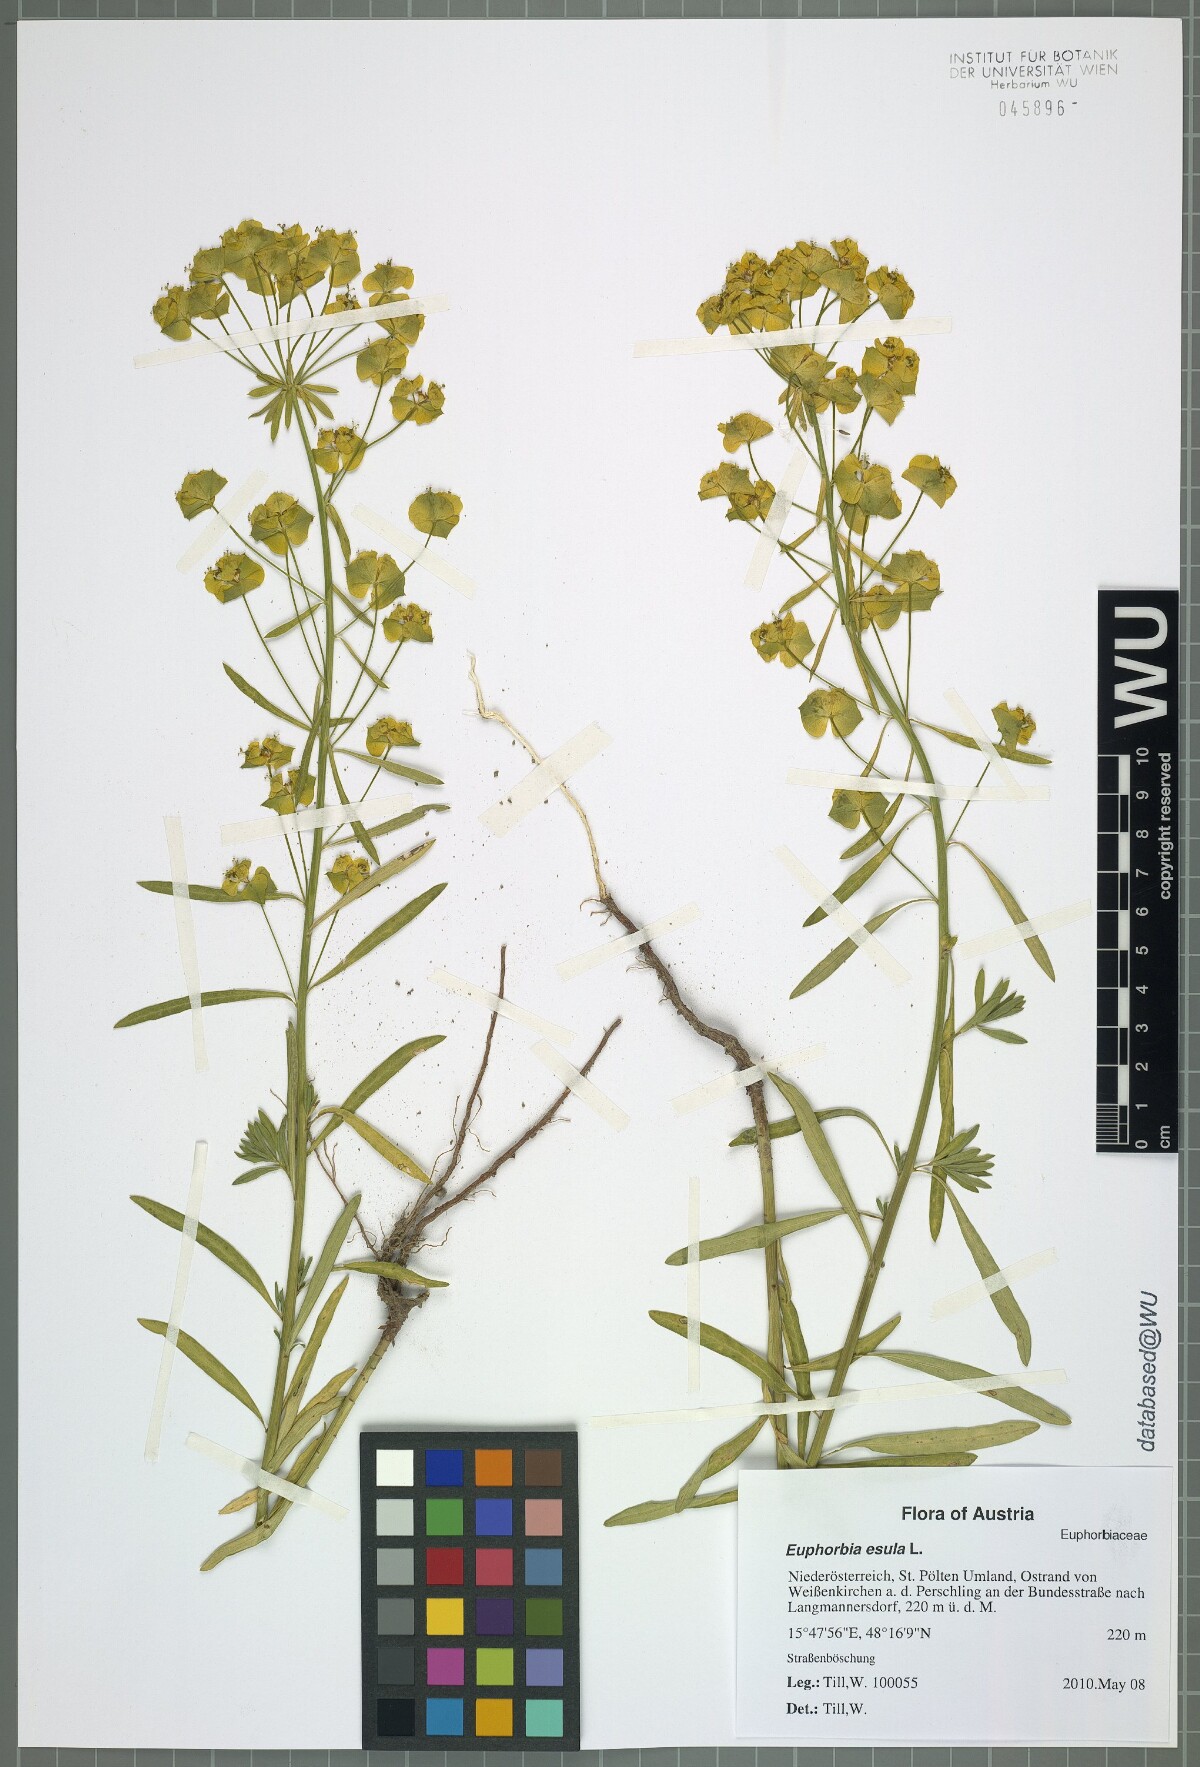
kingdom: Plantae
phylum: Tracheophyta
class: Magnoliopsida
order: Malpighiales
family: Euphorbiaceae
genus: Euphorbia
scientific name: Euphorbia esula
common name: Leafy spurge
